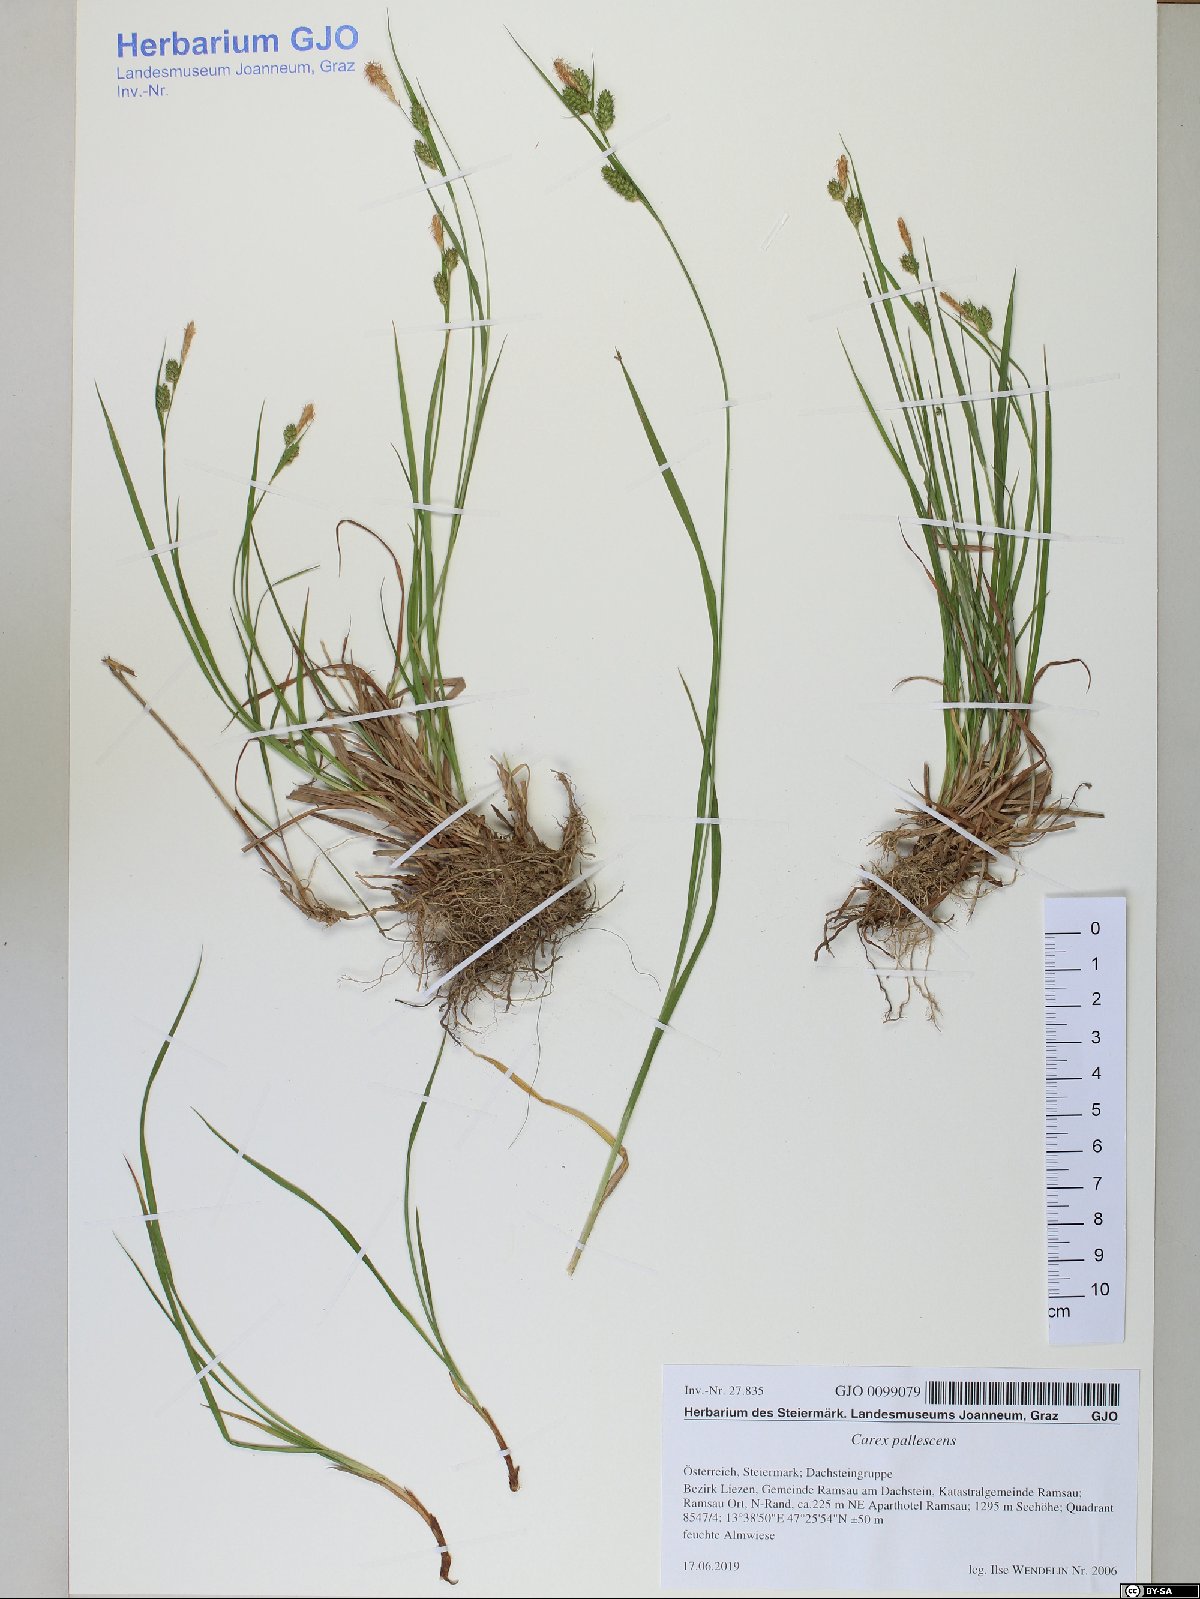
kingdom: Plantae
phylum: Tracheophyta
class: Liliopsida
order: Poales
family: Cyperaceae
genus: Carex
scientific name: Carex pallescens
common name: Pale sedge
